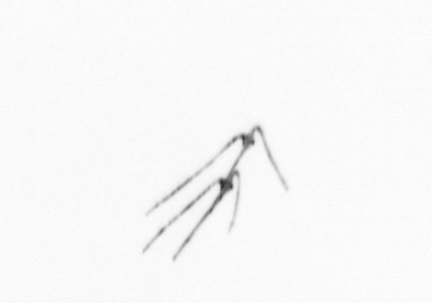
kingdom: Chromista
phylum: Ochrophyta
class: Bacillariophyceae
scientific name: Bacillariophyceae
